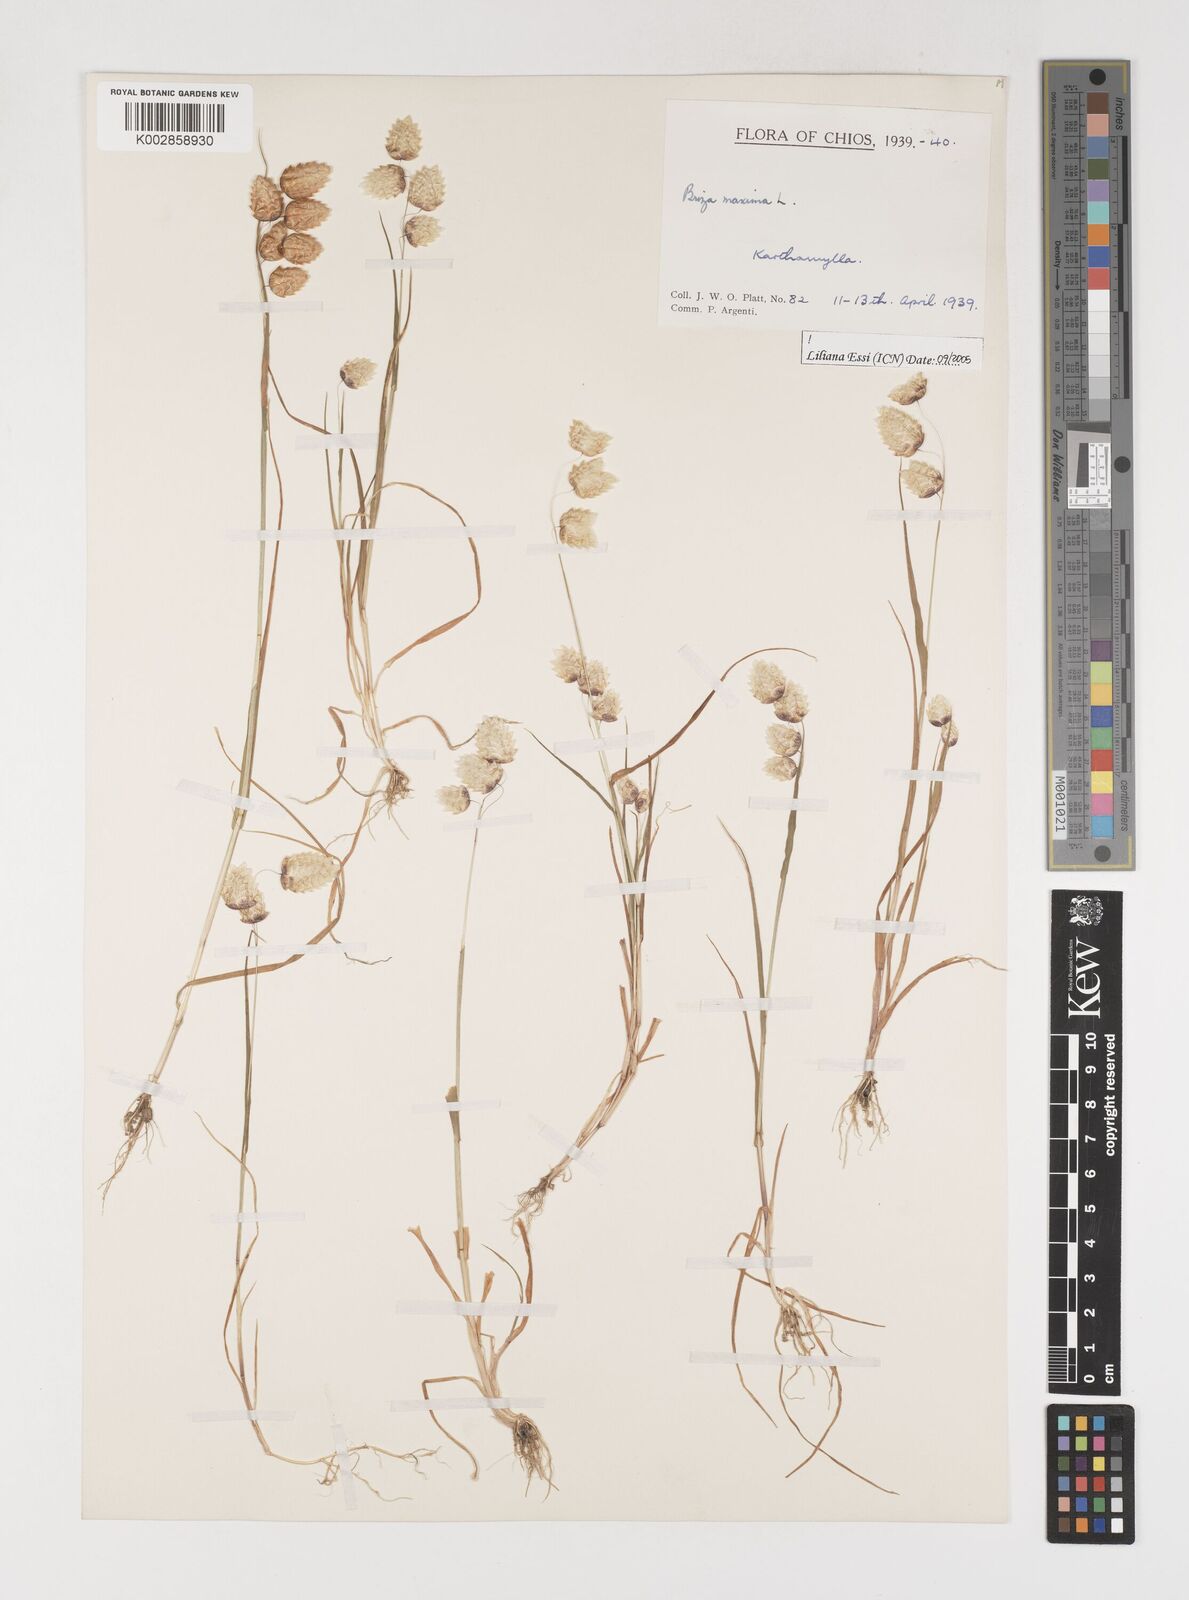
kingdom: Plantae
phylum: Tracheophyta
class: Liliopsida
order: Poales
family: Poaceae
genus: Briza
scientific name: Briza maxima
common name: Big quakinggrass
